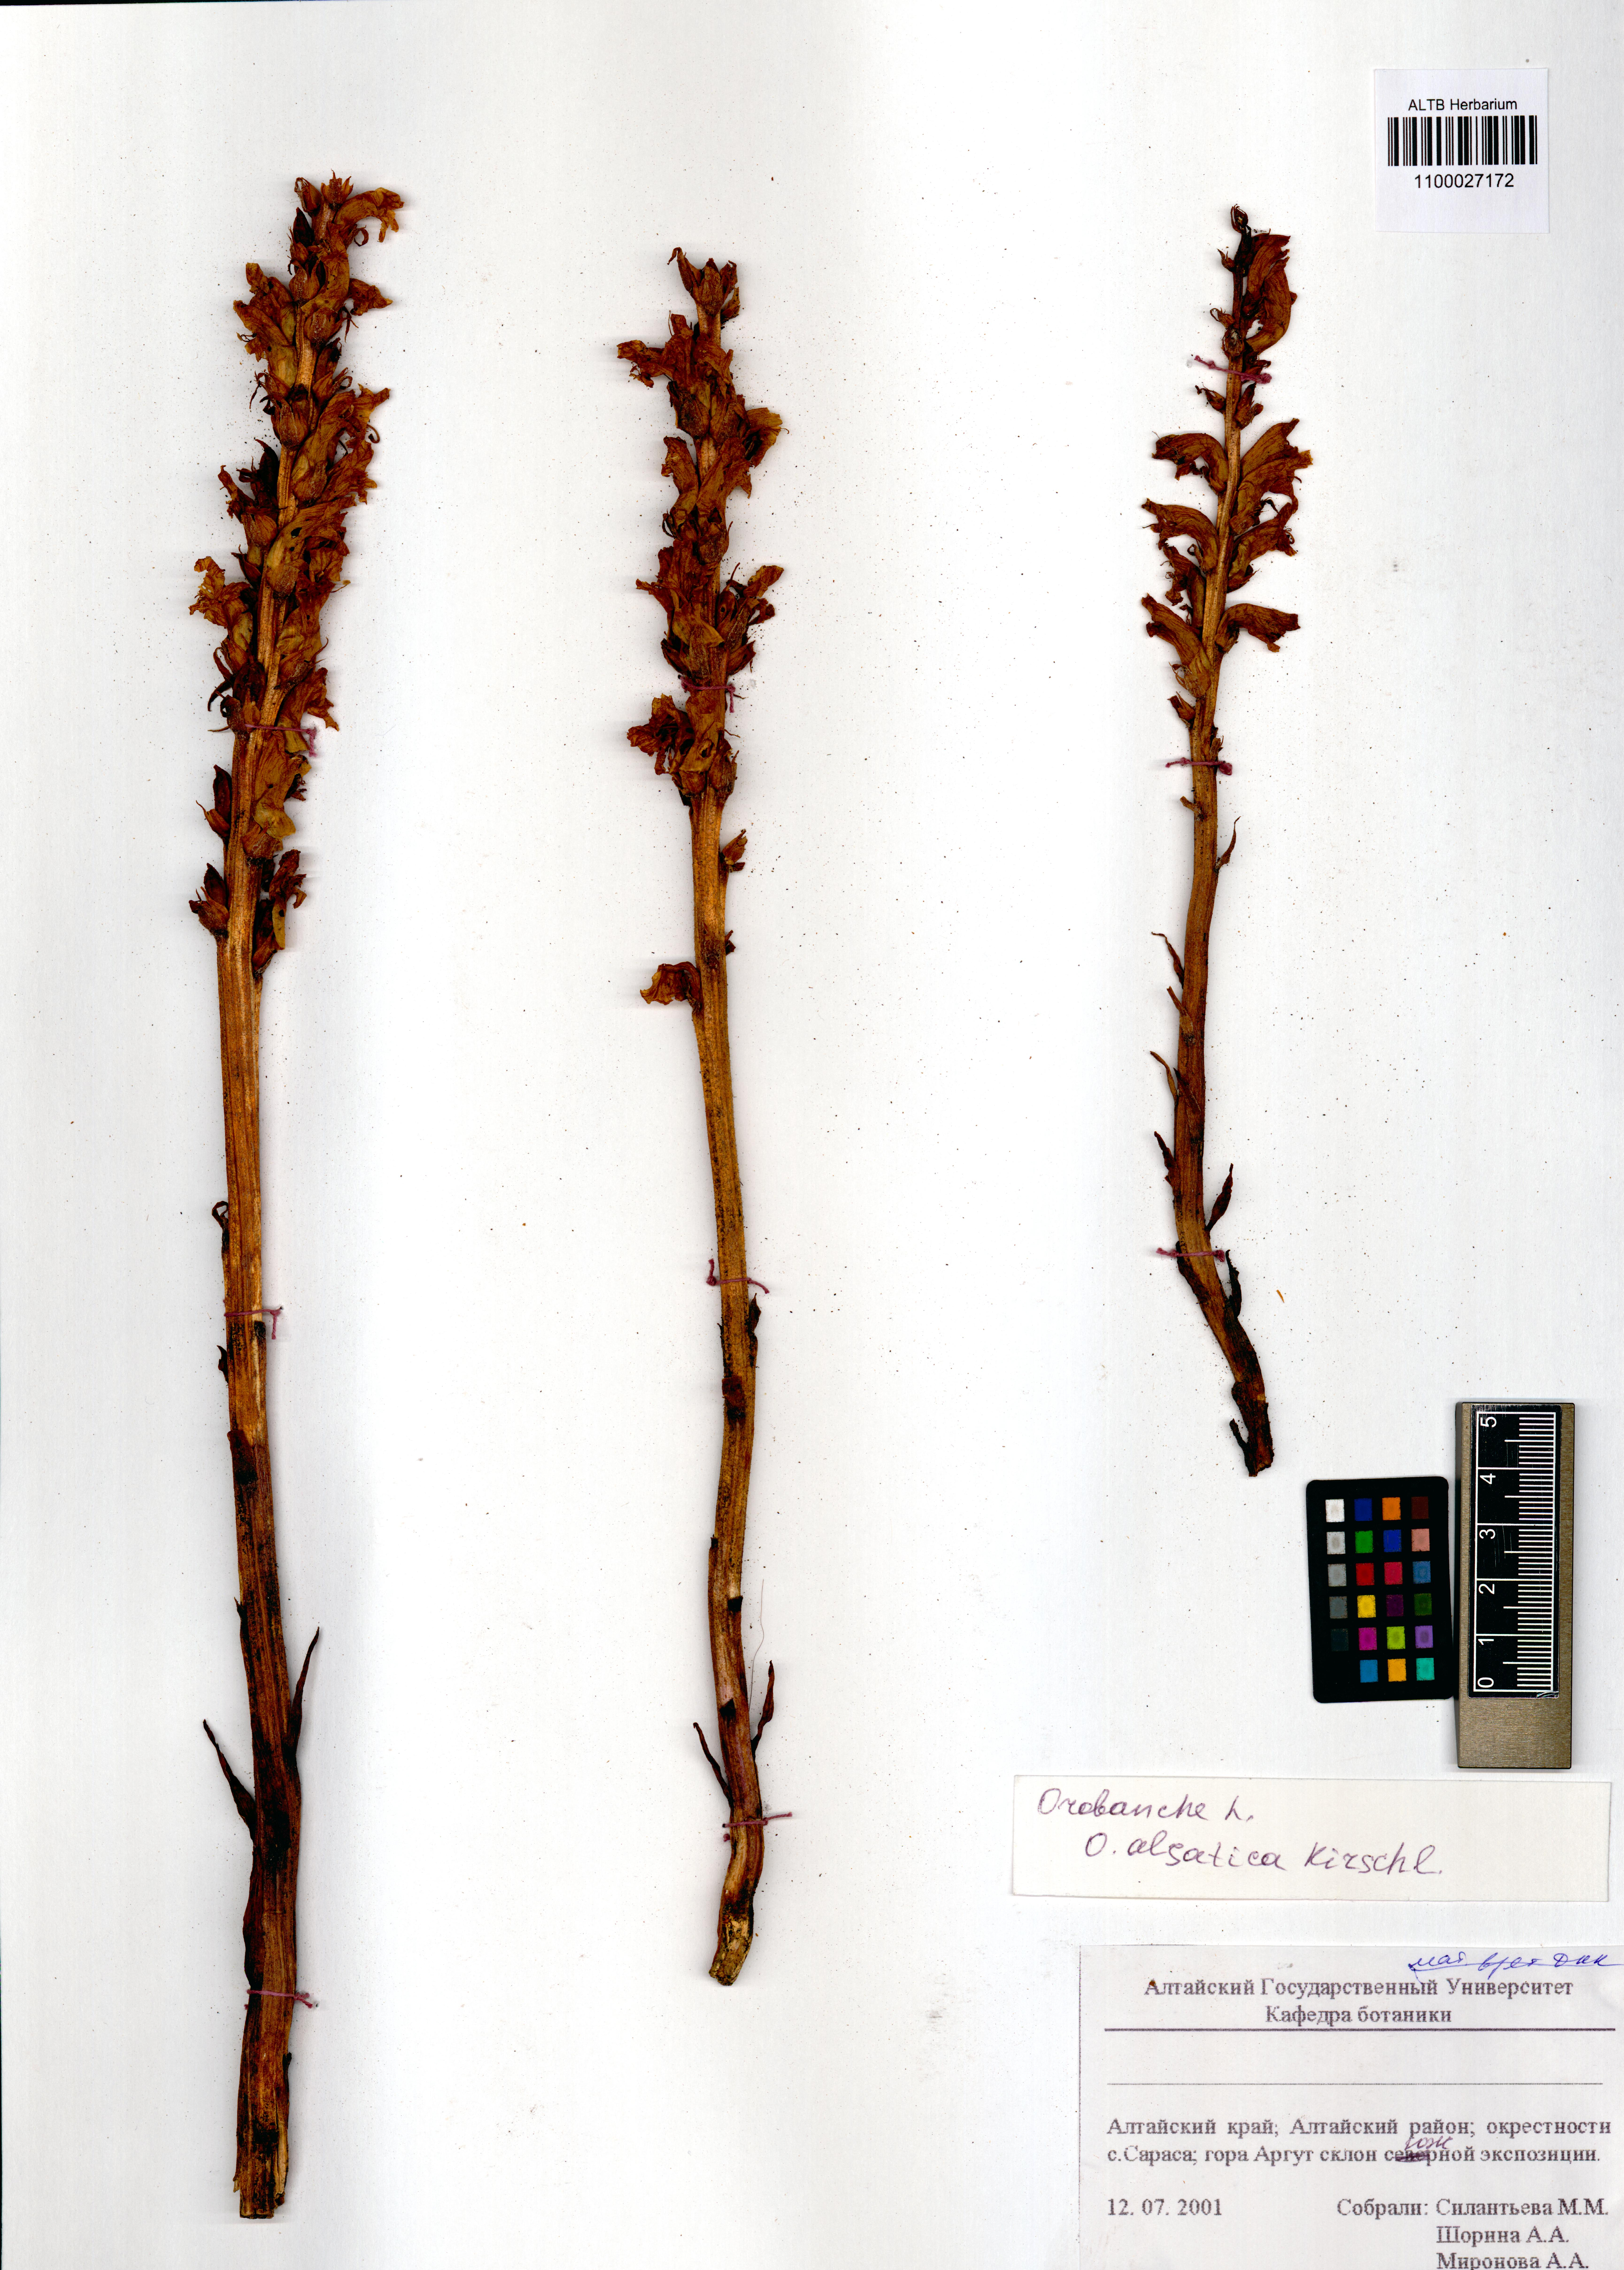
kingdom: Plantae
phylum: Tracheophyta
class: Magnoliopsida
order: Lamiales
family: Orobanchaceae
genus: Orobanche
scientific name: Orobanche alsatica
